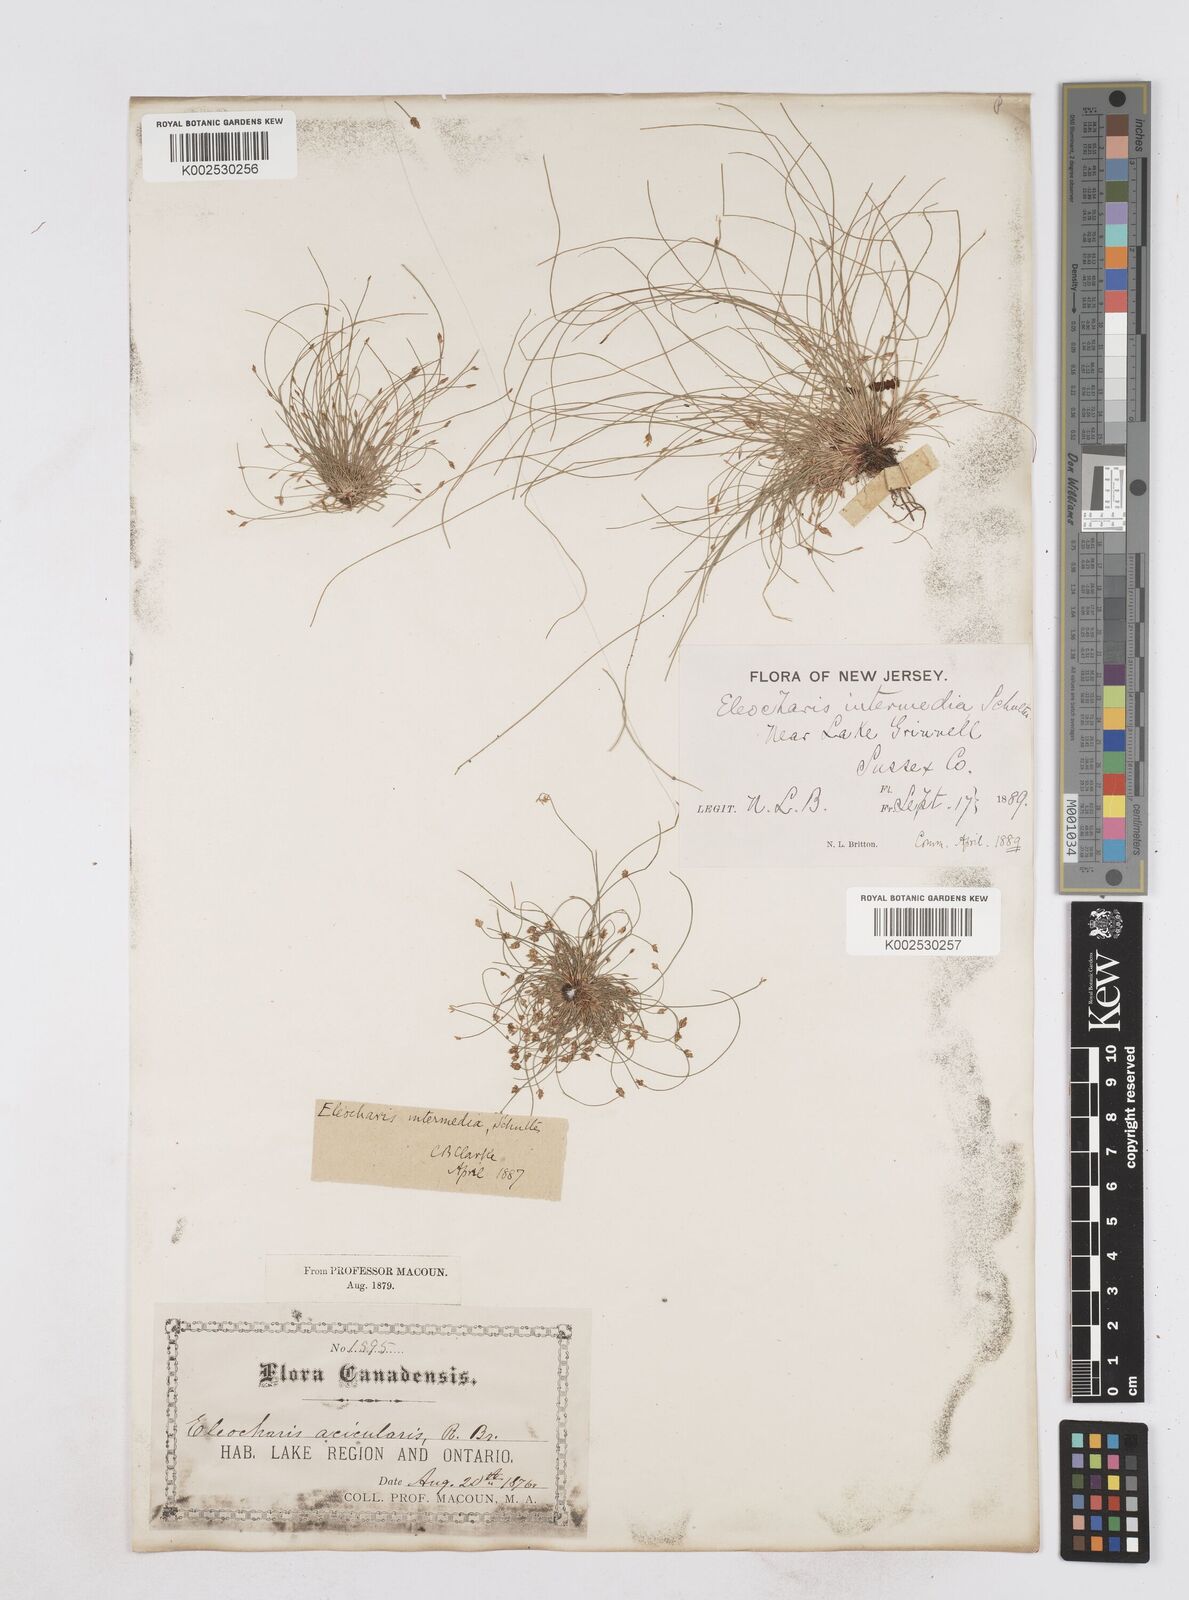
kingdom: Plantae
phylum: Tracheophyta
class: Liliopsida
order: Poales
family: Cyperaceae
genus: Eleocharis
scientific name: Eleocharis intermedia
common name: Intermediate spikerush
